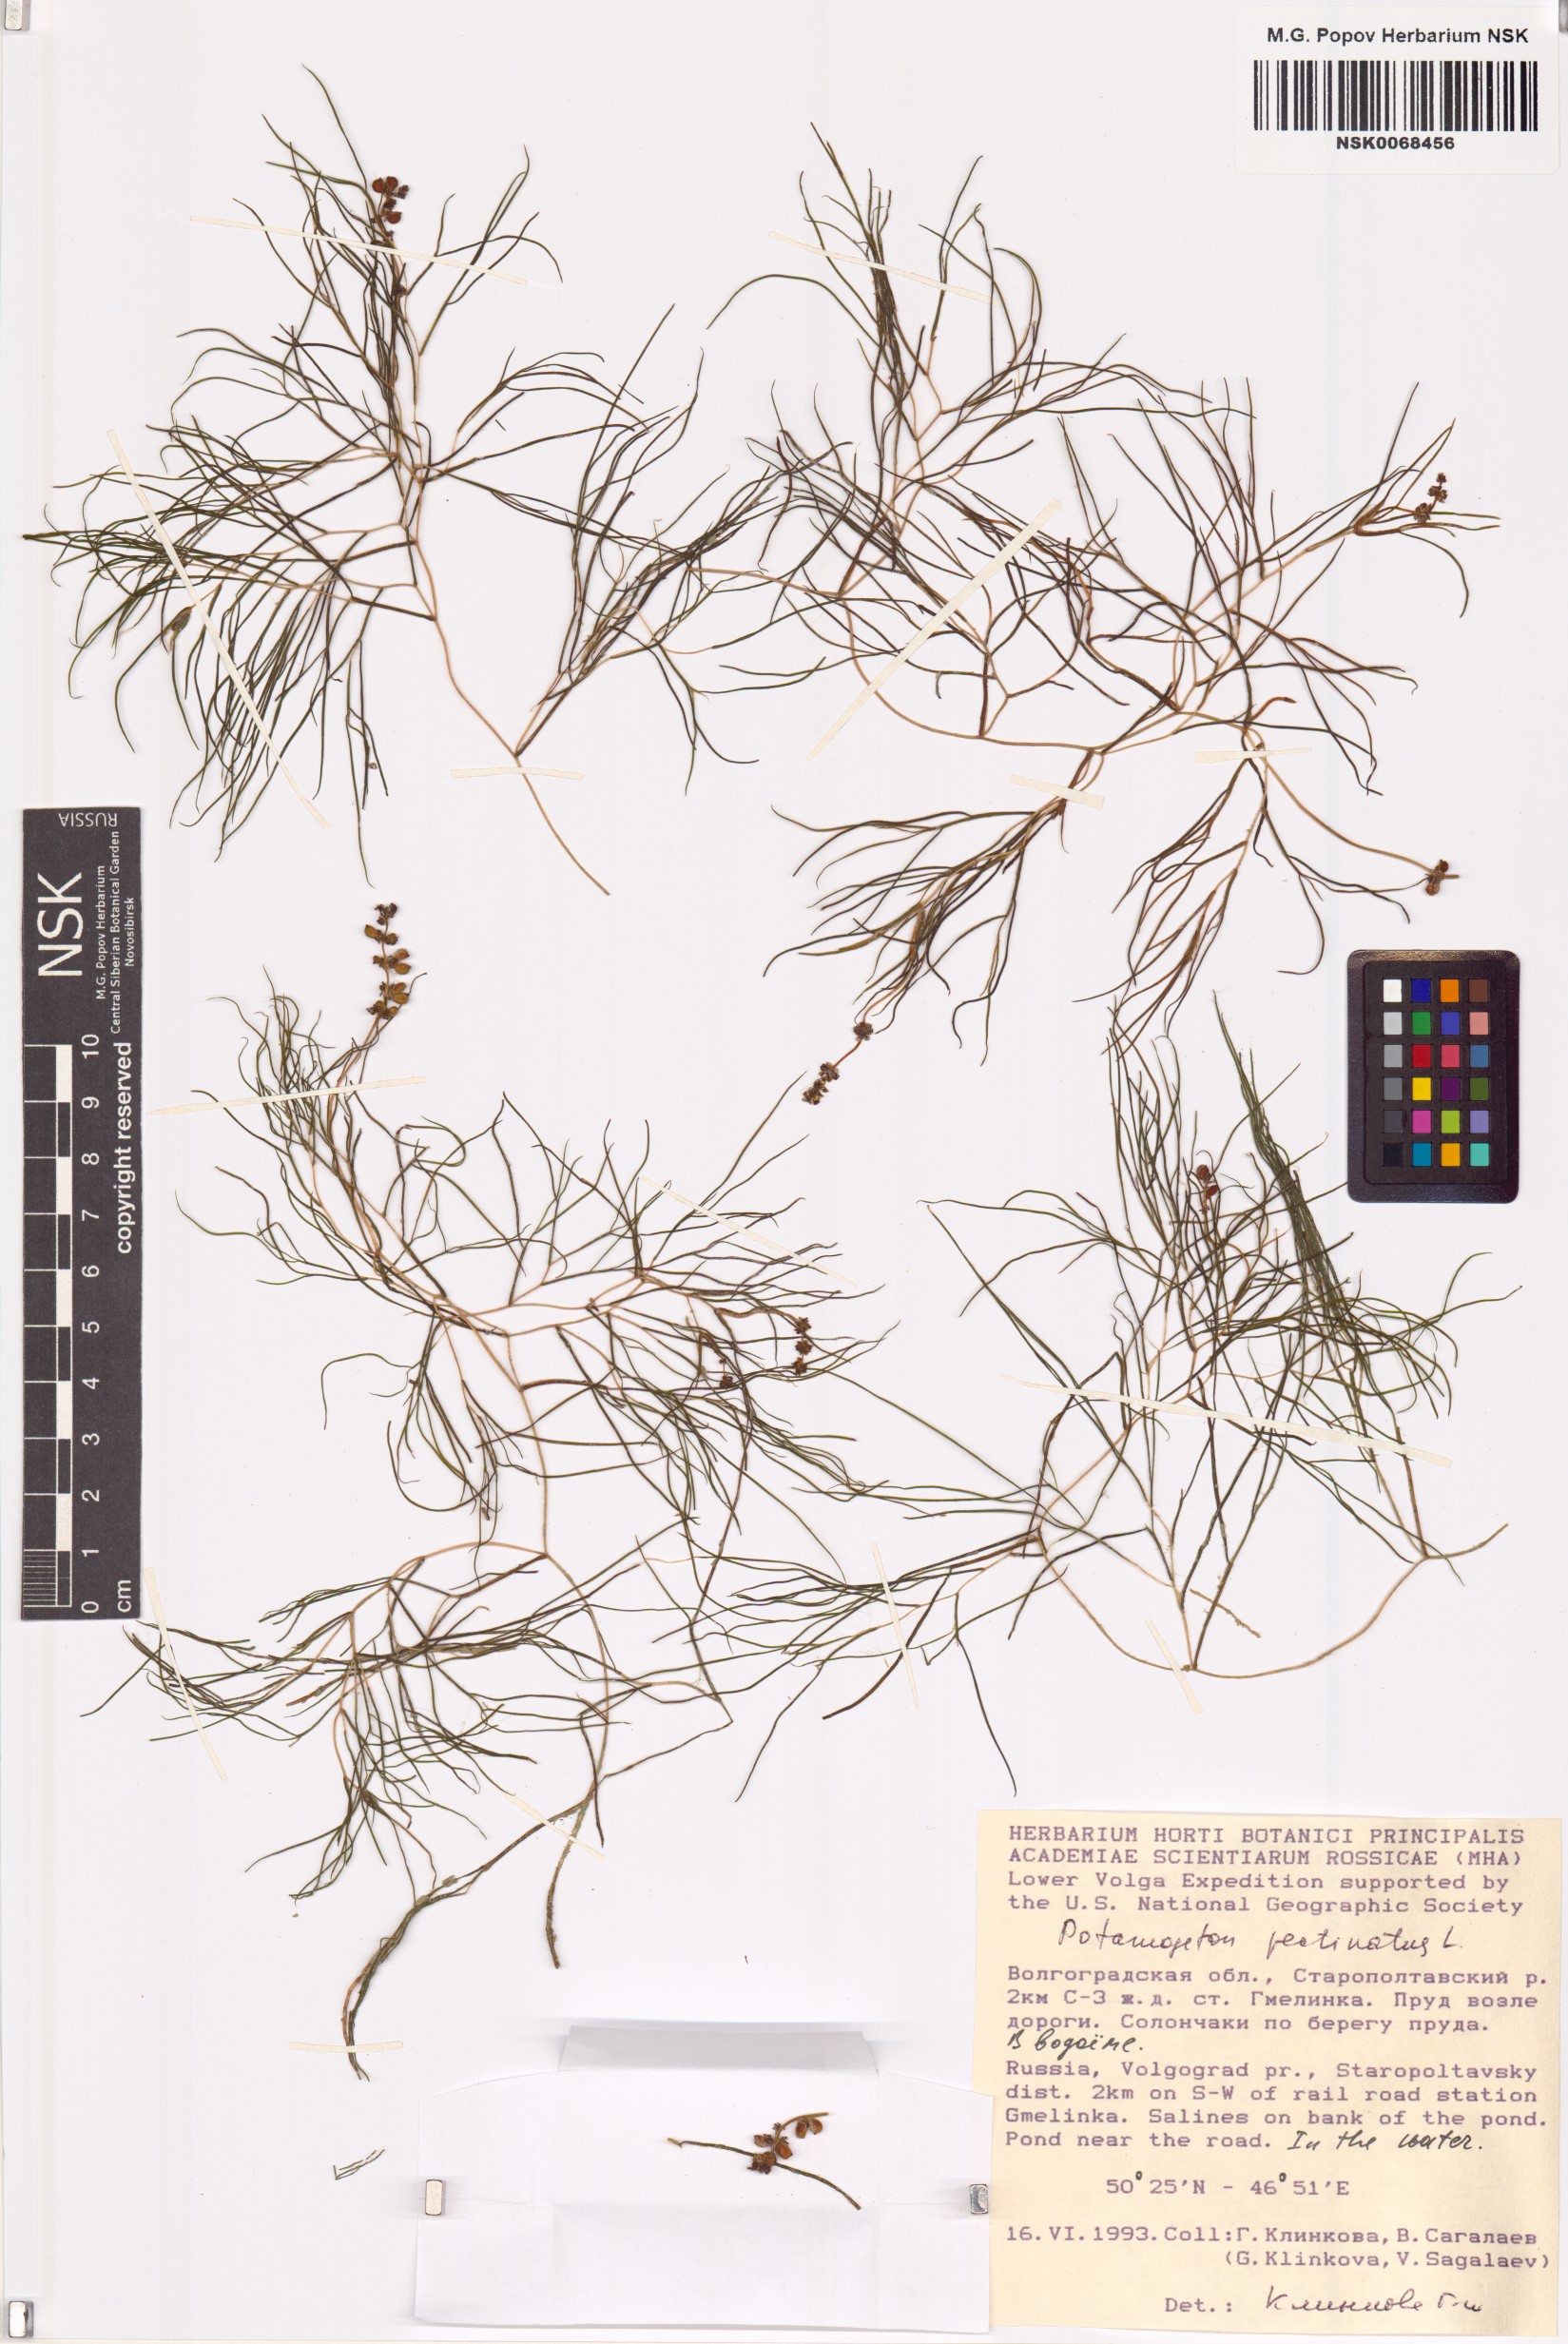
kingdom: Plantae
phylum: Tracheophyta
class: Liliopsida
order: Alismatales
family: Potamogetonaceae
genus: Stuckenia
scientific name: Stuckenia pectinata
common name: Sago pondweed
